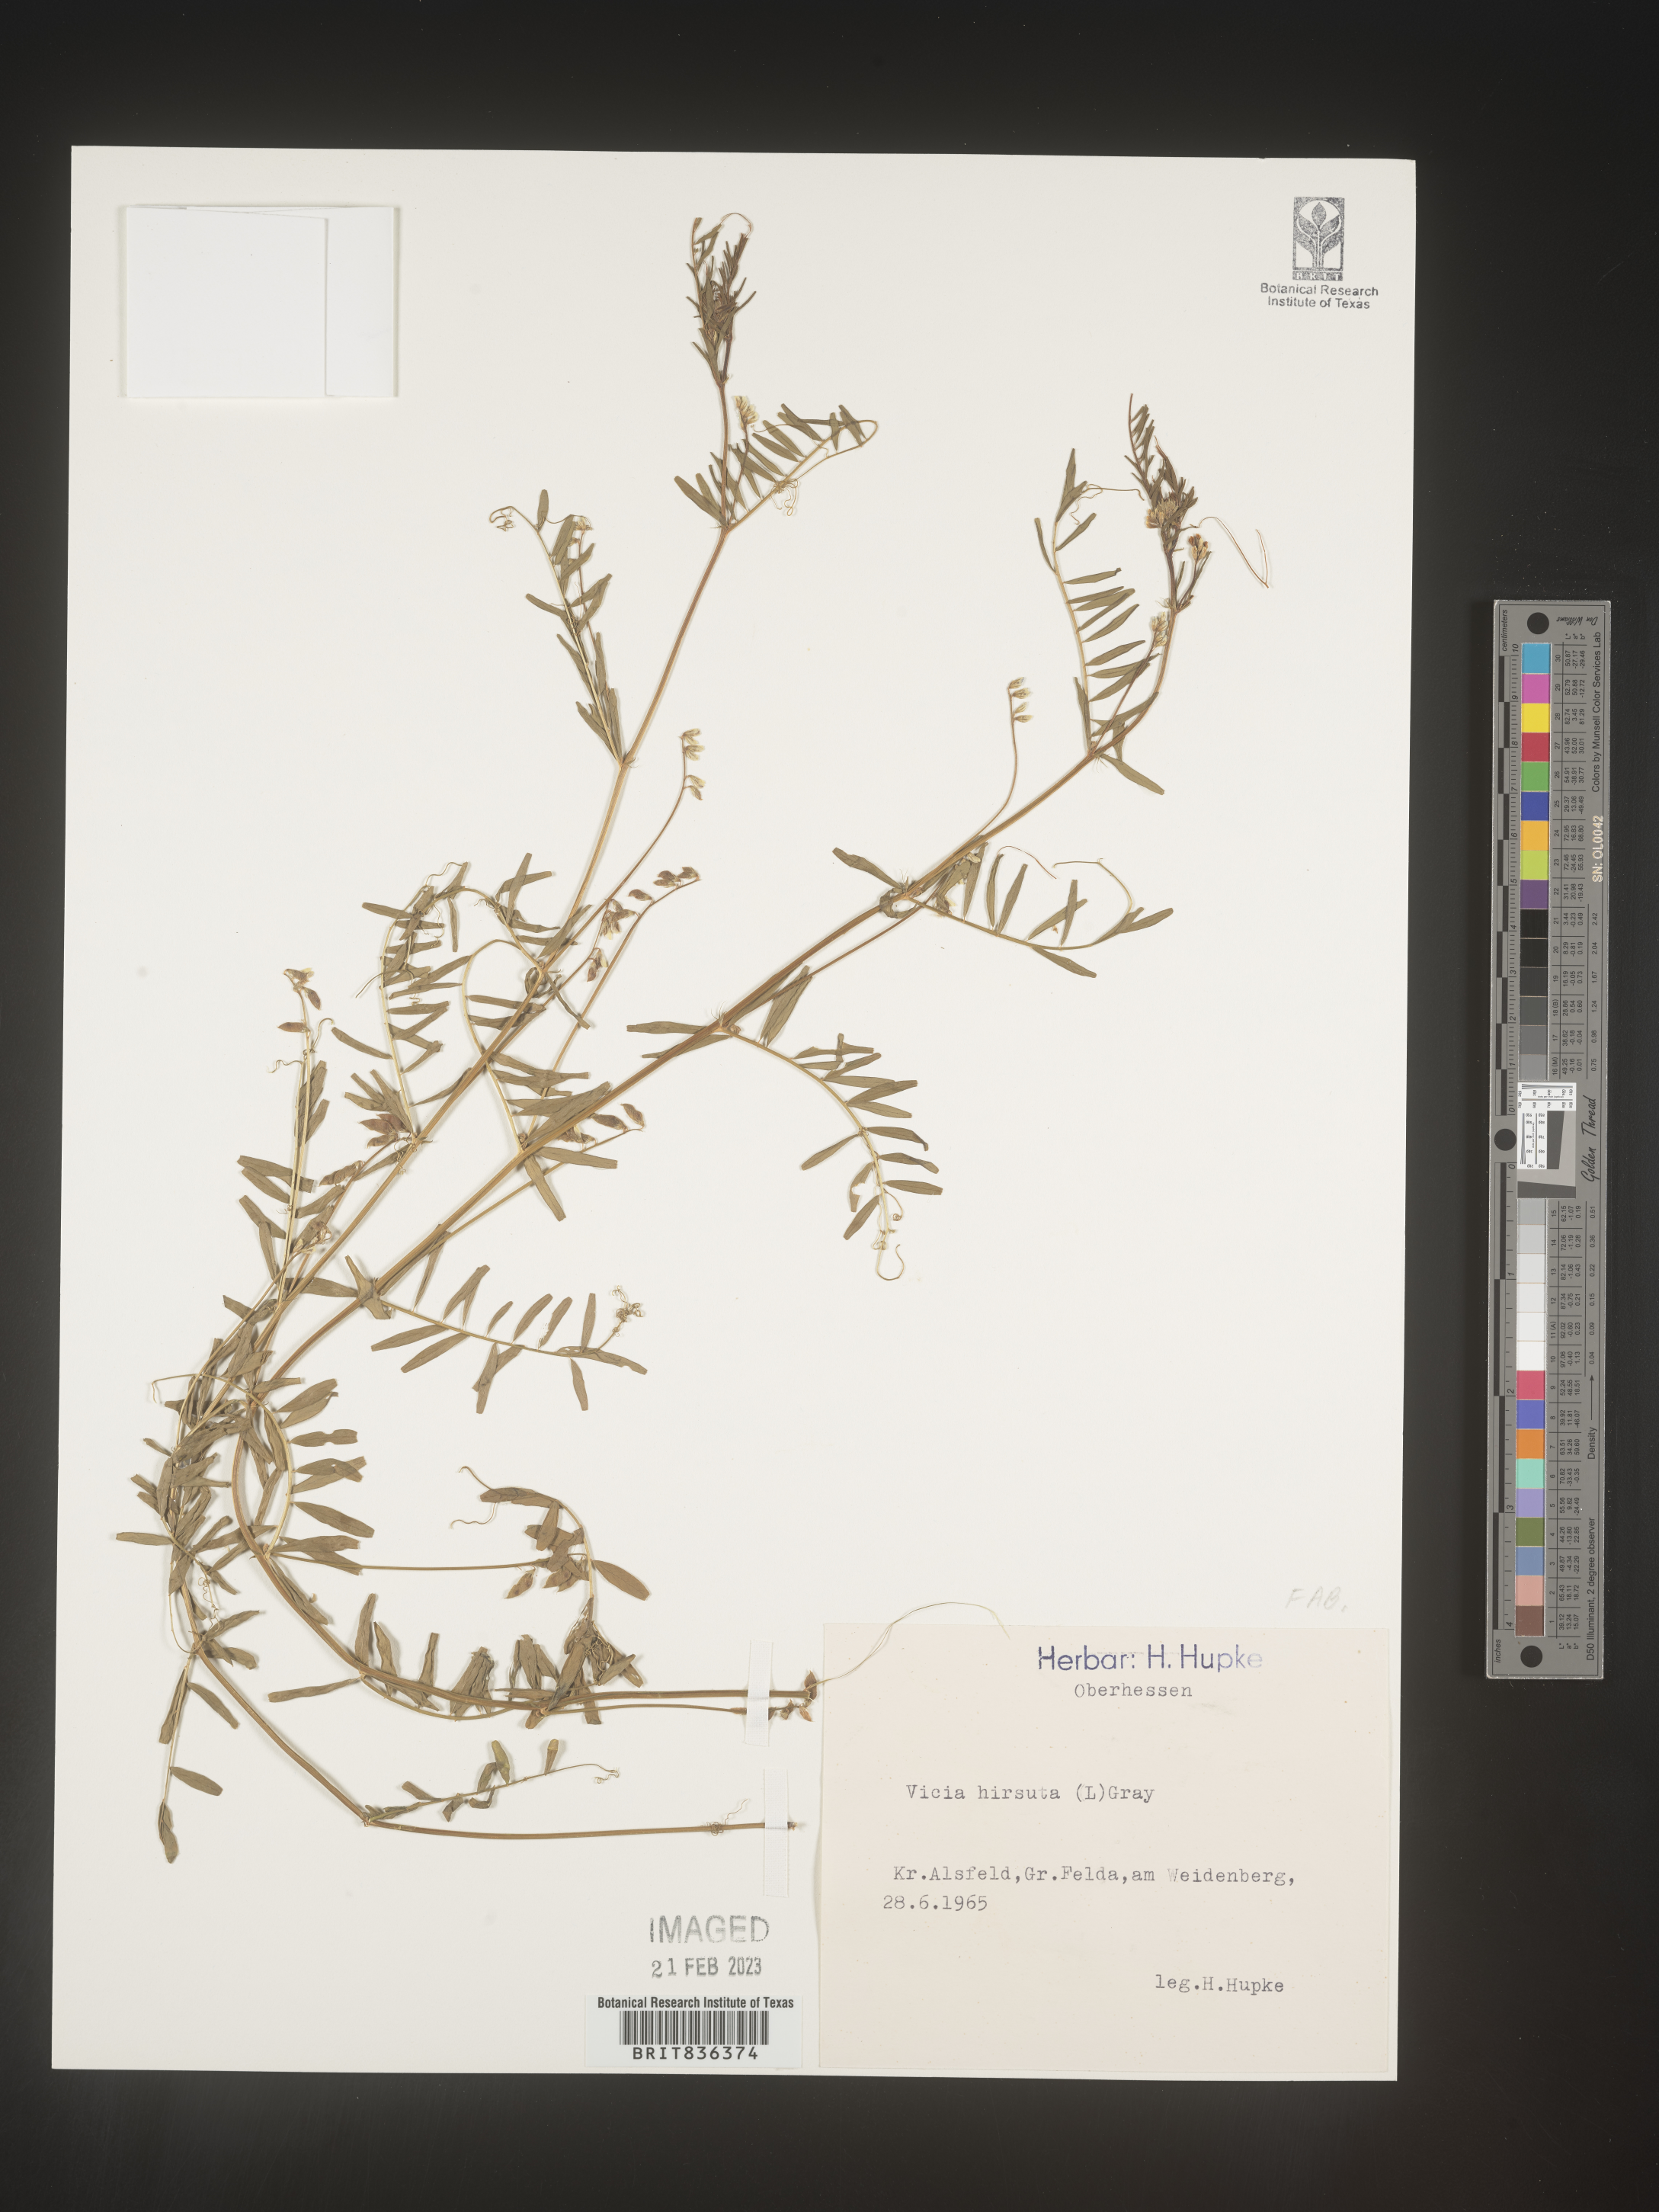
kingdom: Plantae
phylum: Tracheophyta
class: Magnoliopsida
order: Fabales
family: Fabaceae
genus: Vicia
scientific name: Vicia
